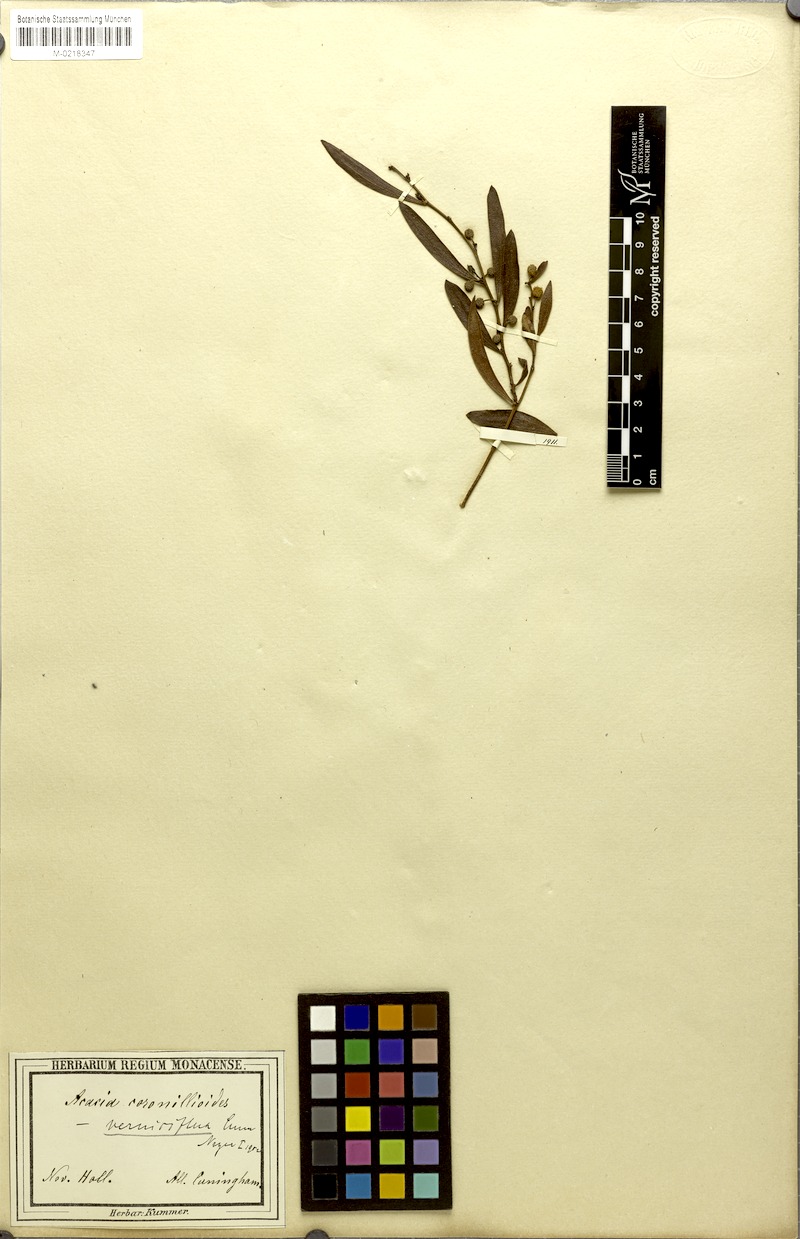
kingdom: Plantae
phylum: Tracheophyta
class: Magnoliopsida
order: Fabales
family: Fabaceae
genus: Acacia
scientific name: Acacia verniciflua
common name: Varnish wattle
